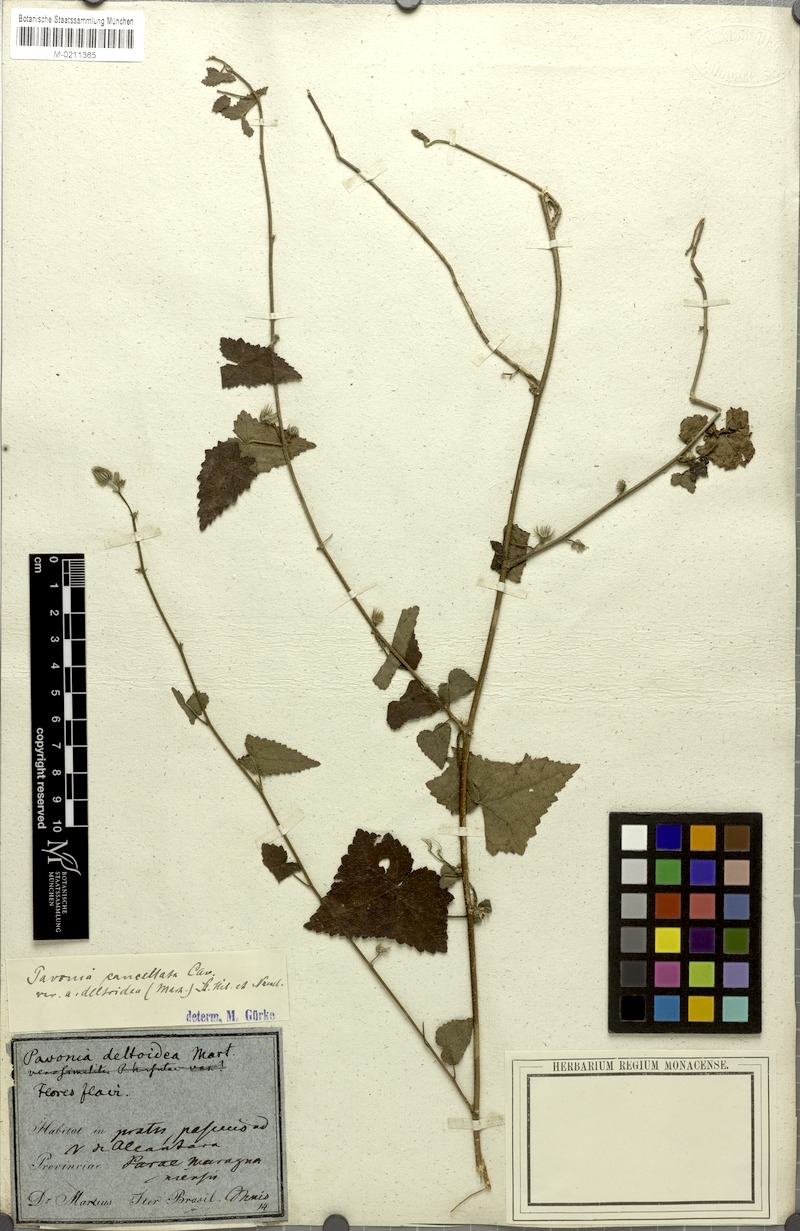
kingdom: Plantae
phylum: Tracheophyta
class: Magnoliopsida
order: Malvales
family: Malvaceae
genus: Pavonia
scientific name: Pavonia cancellata
